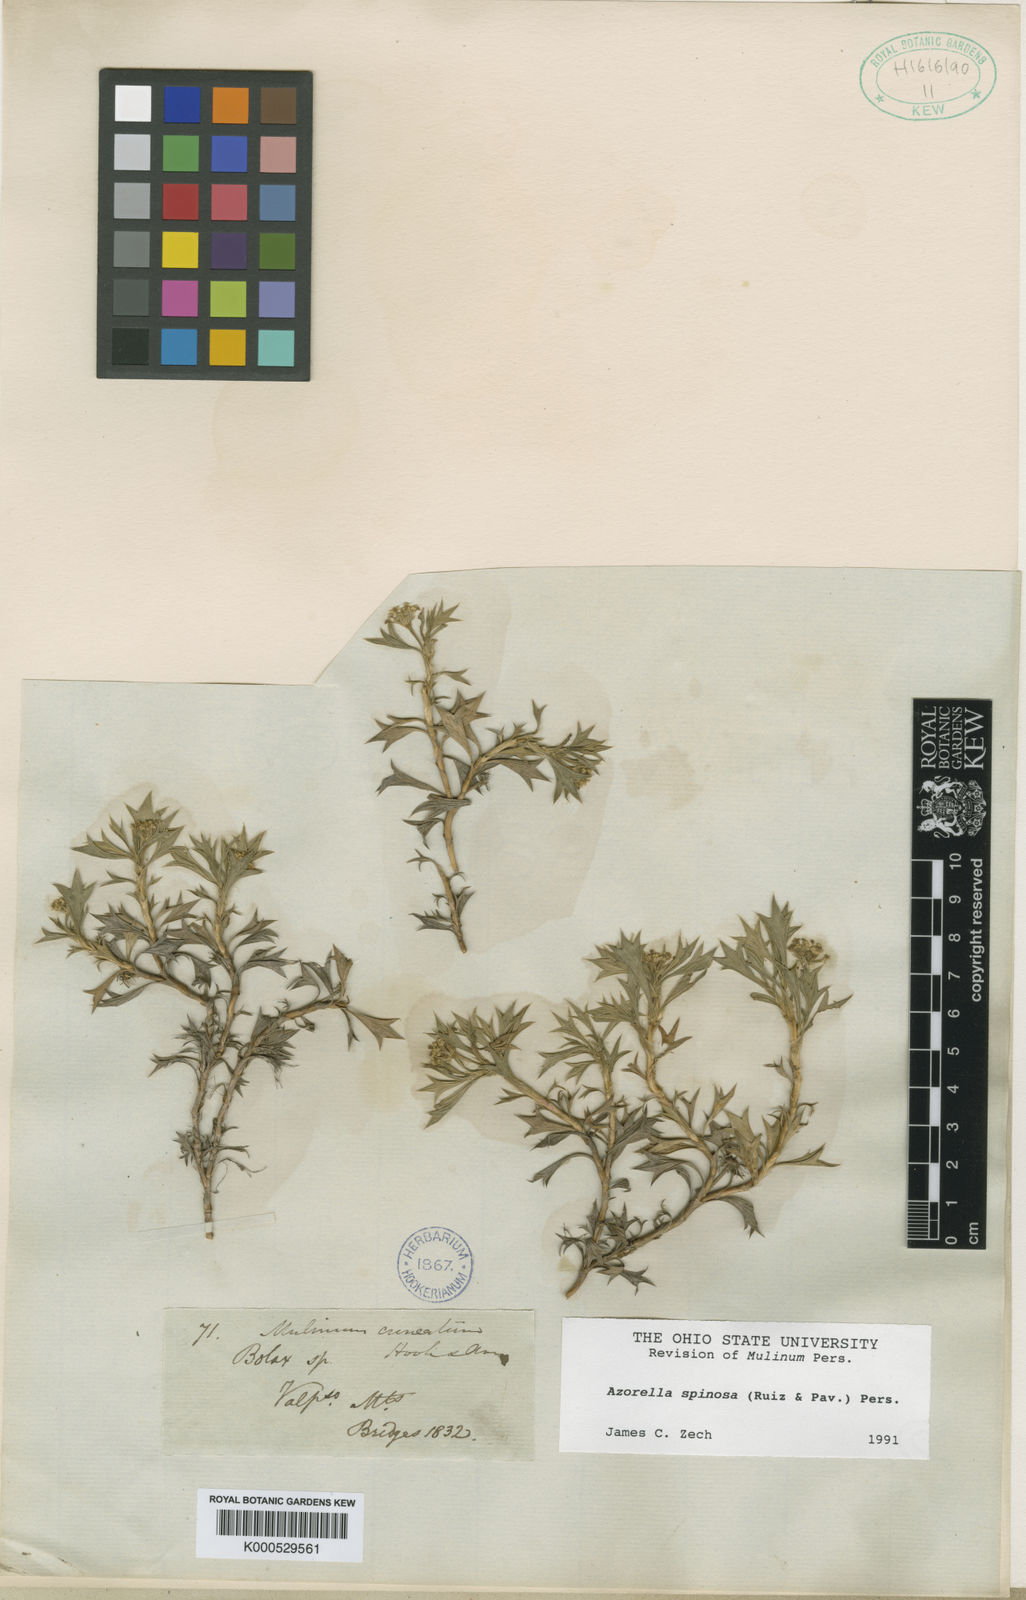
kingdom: Plantae
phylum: Tracheophyta
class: Magnoliopsida
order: Apiales
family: Apiaceae
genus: Azorella
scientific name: Azorella spinosa
